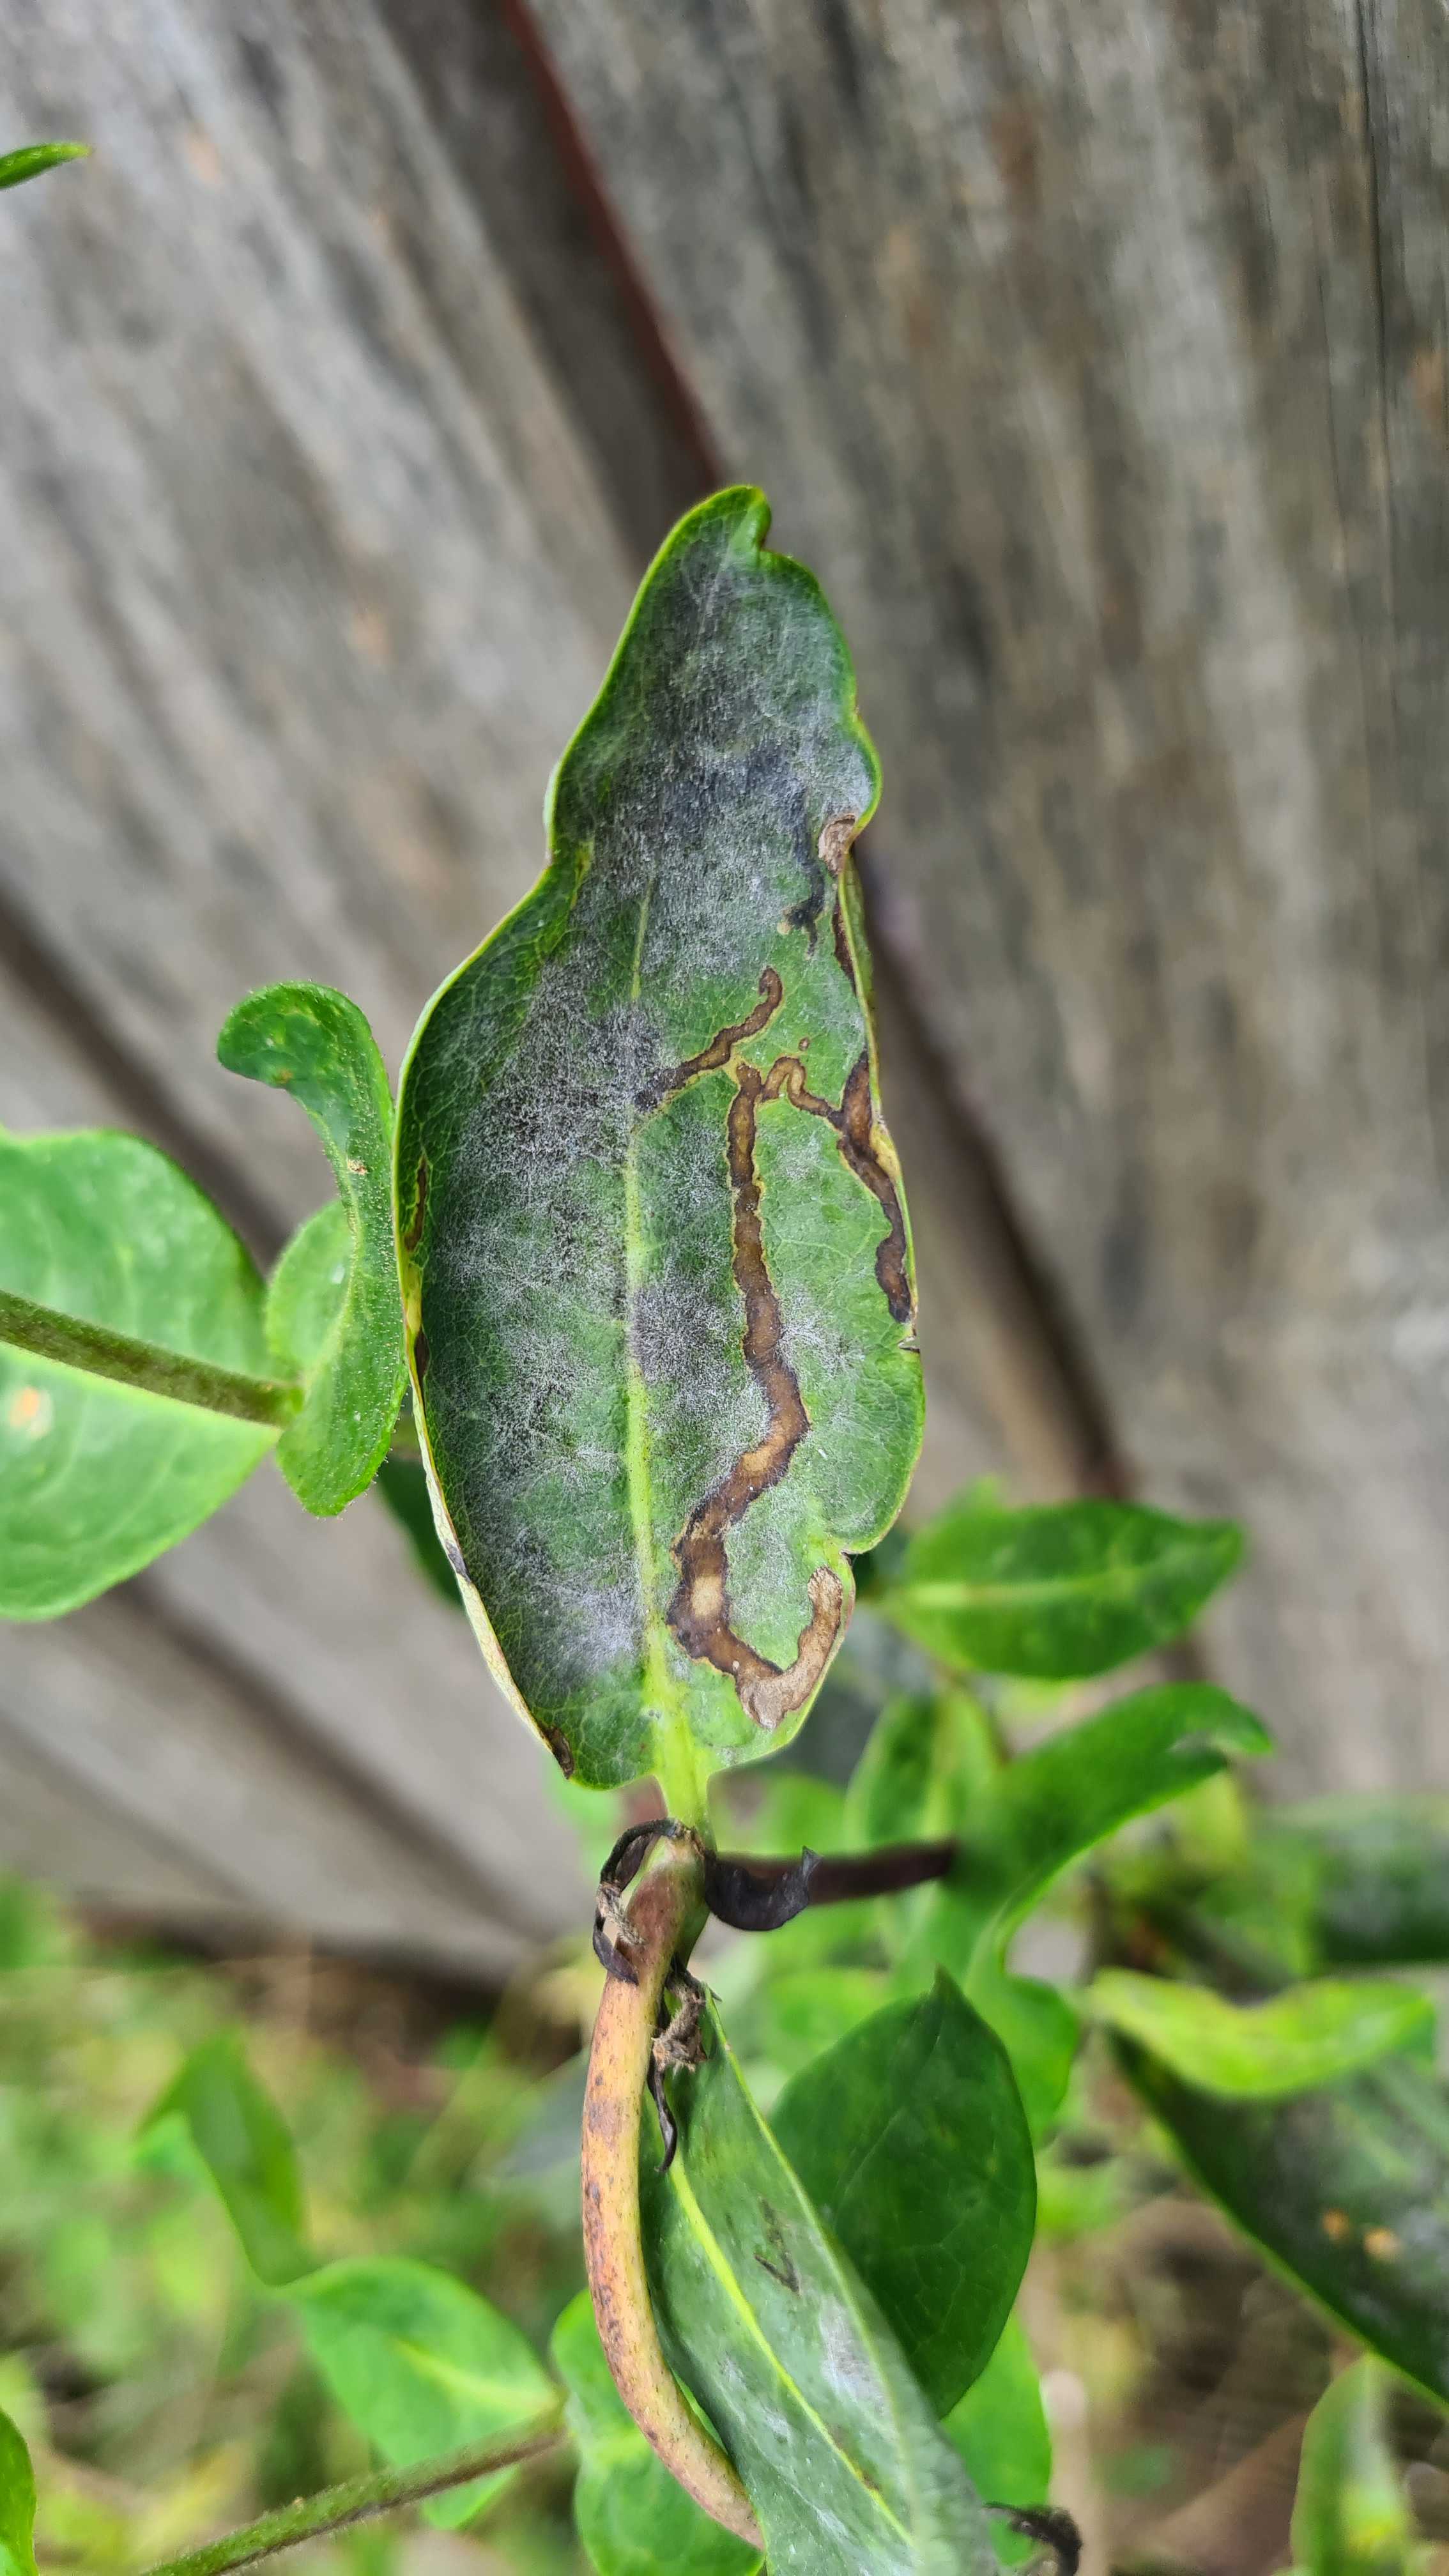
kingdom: Fungi
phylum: Ascomycota
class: Leotiomycetes
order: Helotiales
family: Erysiphaceae
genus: Erysiphe
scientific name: Erysiphe lonicerae
